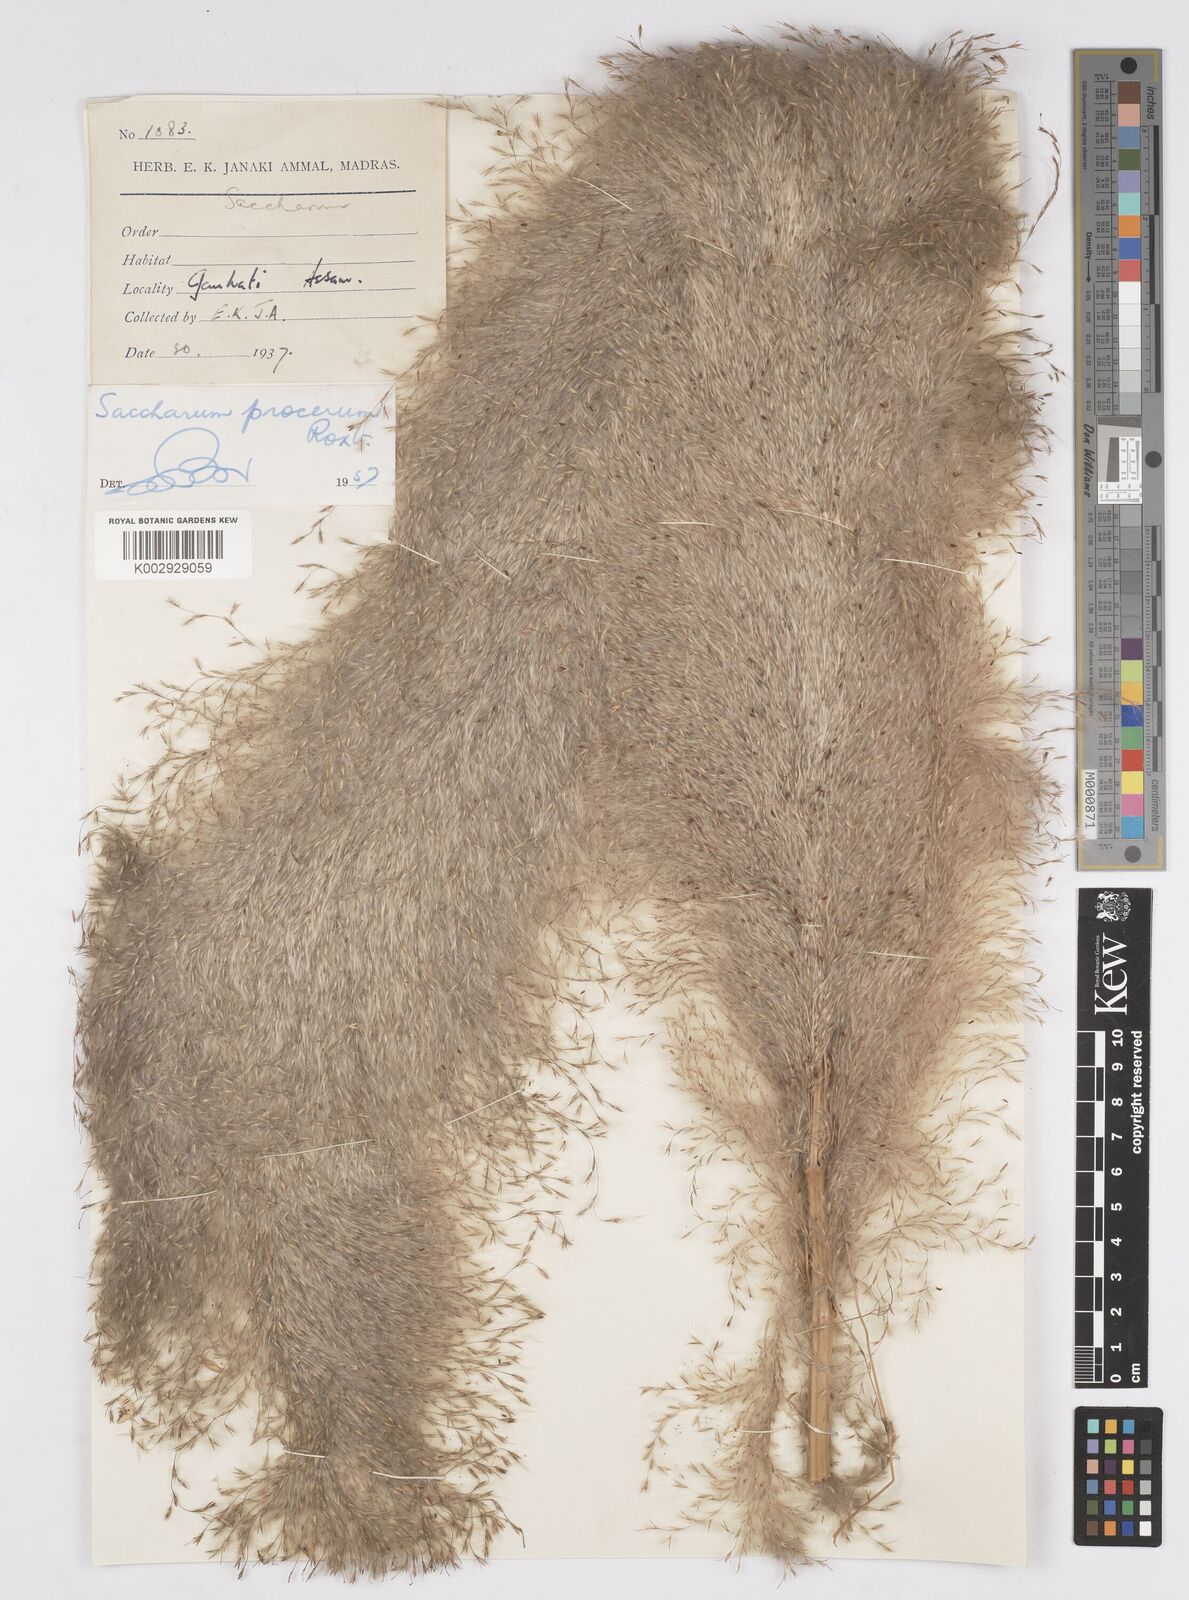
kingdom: Plantae
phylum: Tracheophyta
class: Liliopsida
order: Poales
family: Poaceae
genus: Tripidium
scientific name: Tripidium procerum
